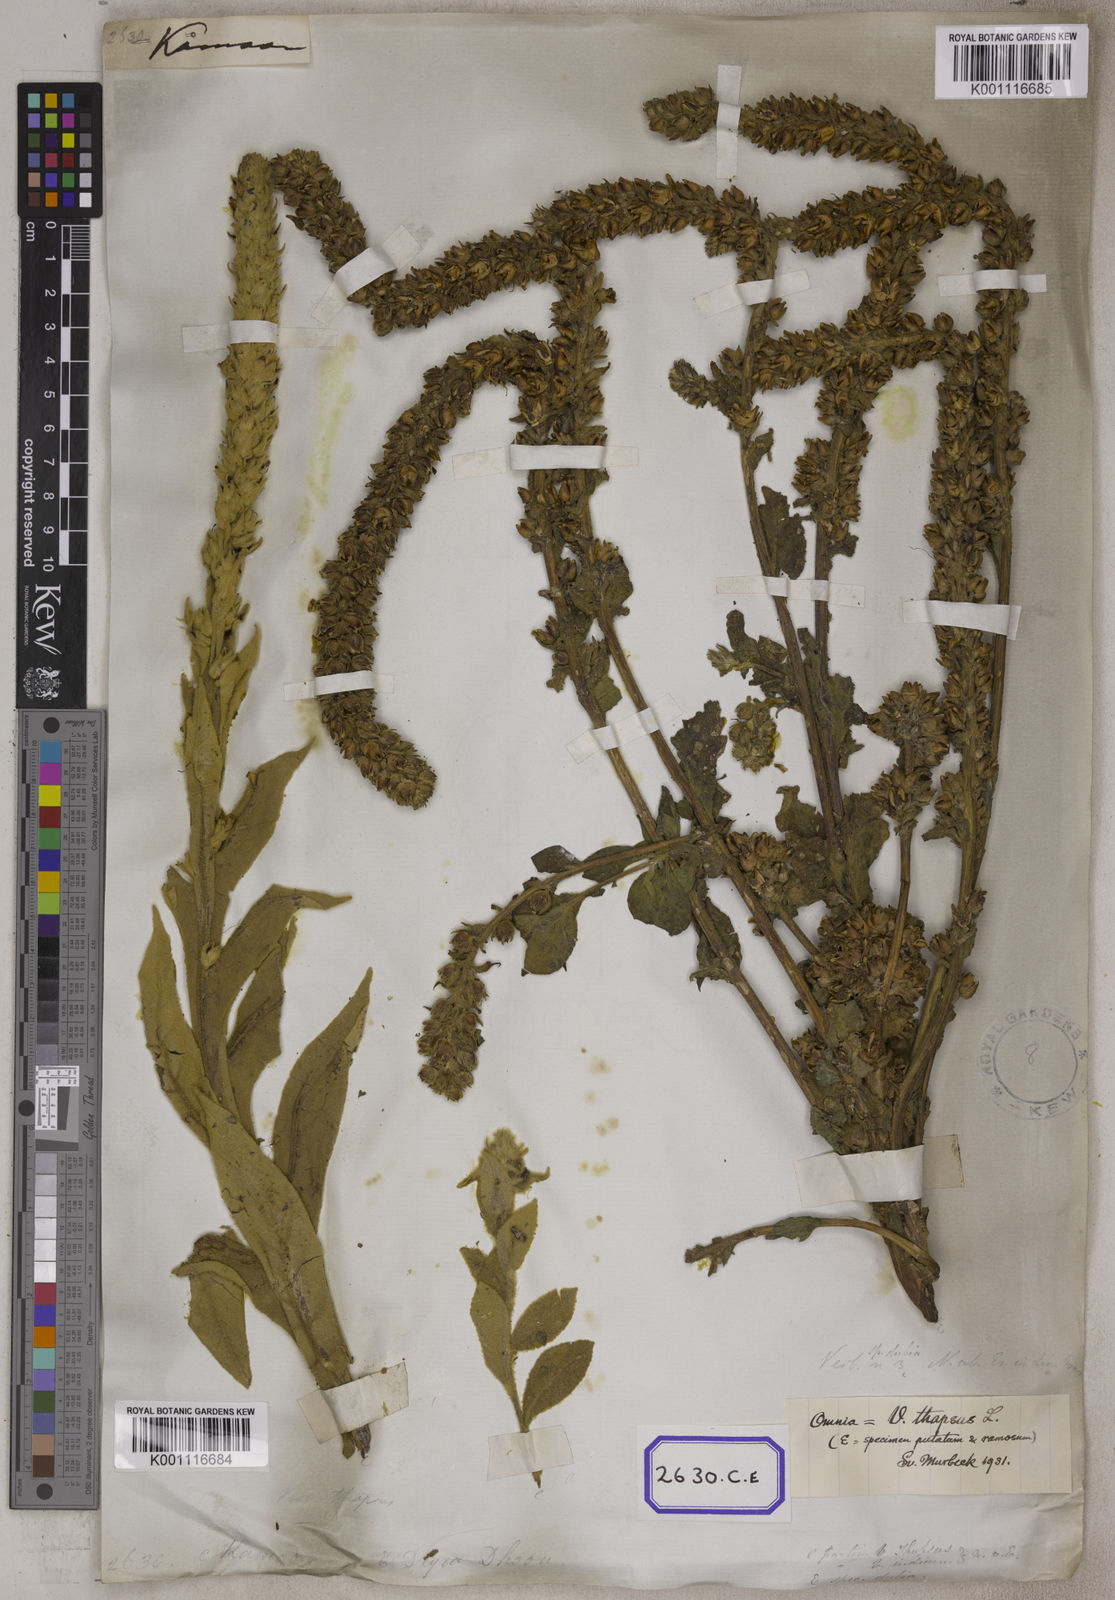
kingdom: Plantae
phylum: Tracheophyta
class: Magnoliopsida
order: Lamiales
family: Scrophulariaceae
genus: Verbascum
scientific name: Verbascum thapsus
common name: Common mullein
